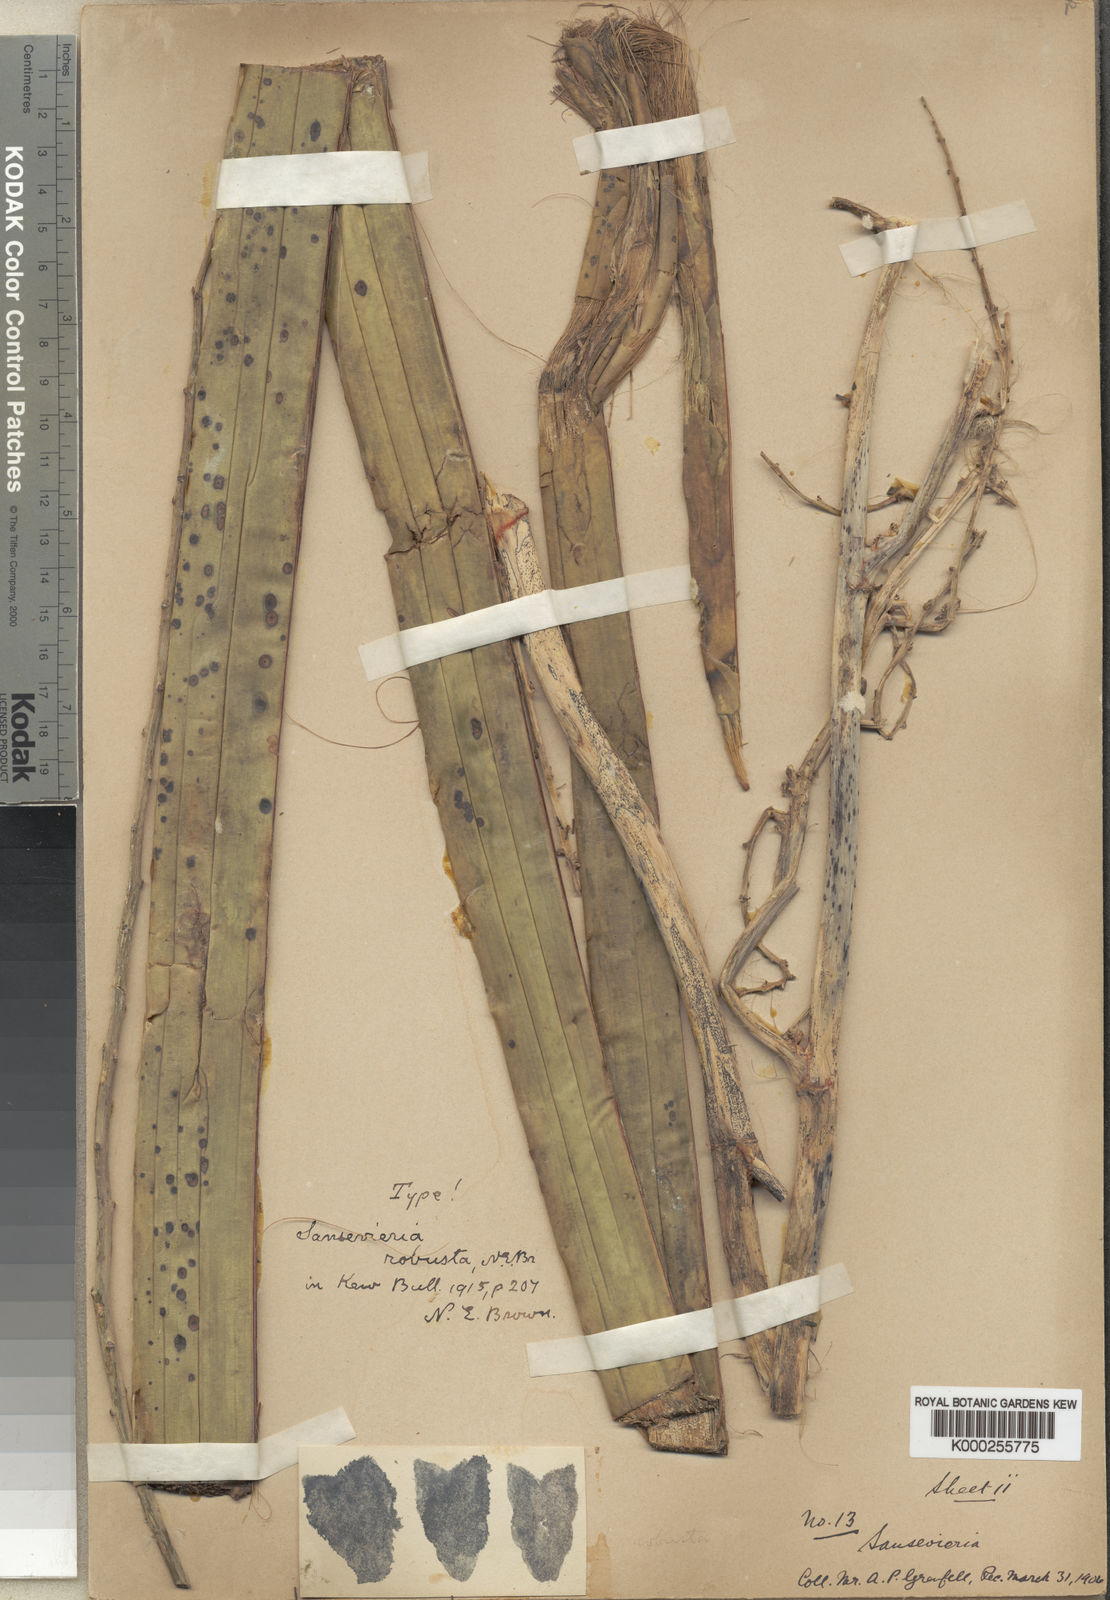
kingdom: Plantae
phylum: Tracheophyta
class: Liliopsida
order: Asparagales
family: Asparagaceae
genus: Dracaena
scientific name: Dracaena perrotii
